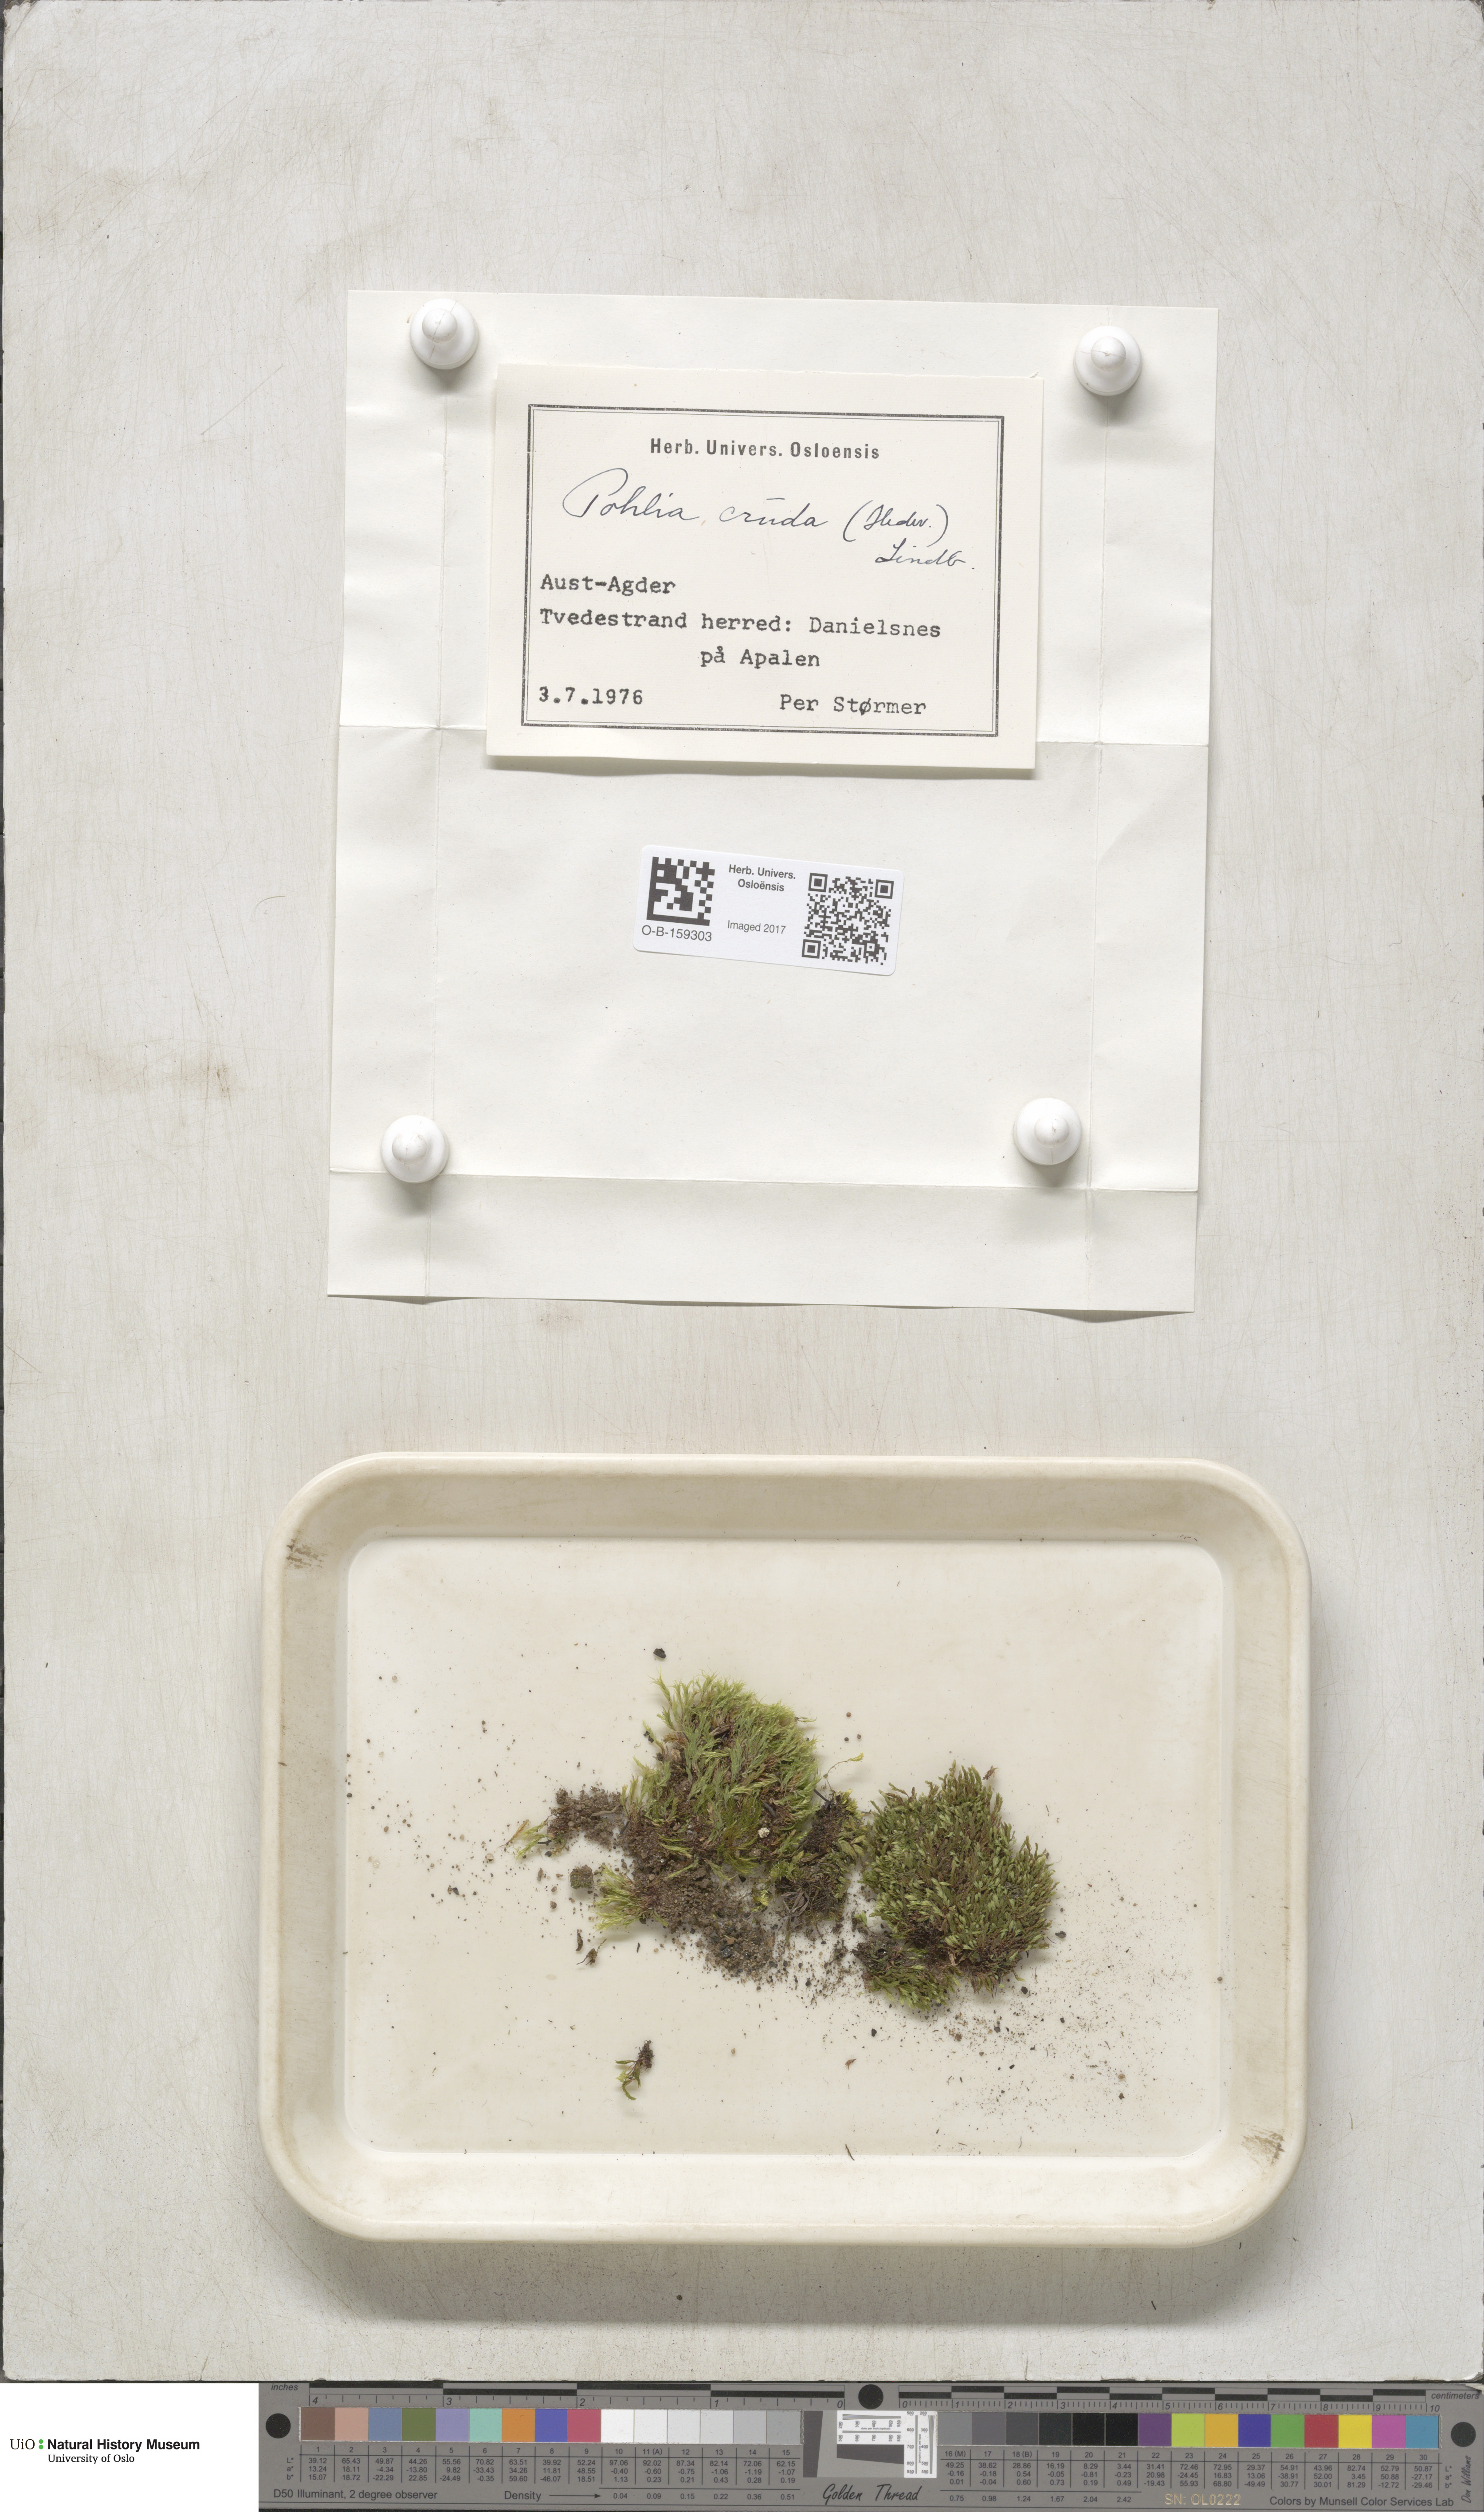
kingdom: Plantae
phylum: Bryophyta
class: Bryopsida
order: Bryales
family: Mniaceae
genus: Pohlia
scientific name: Pohlia cruda
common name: Opal nodding moss
